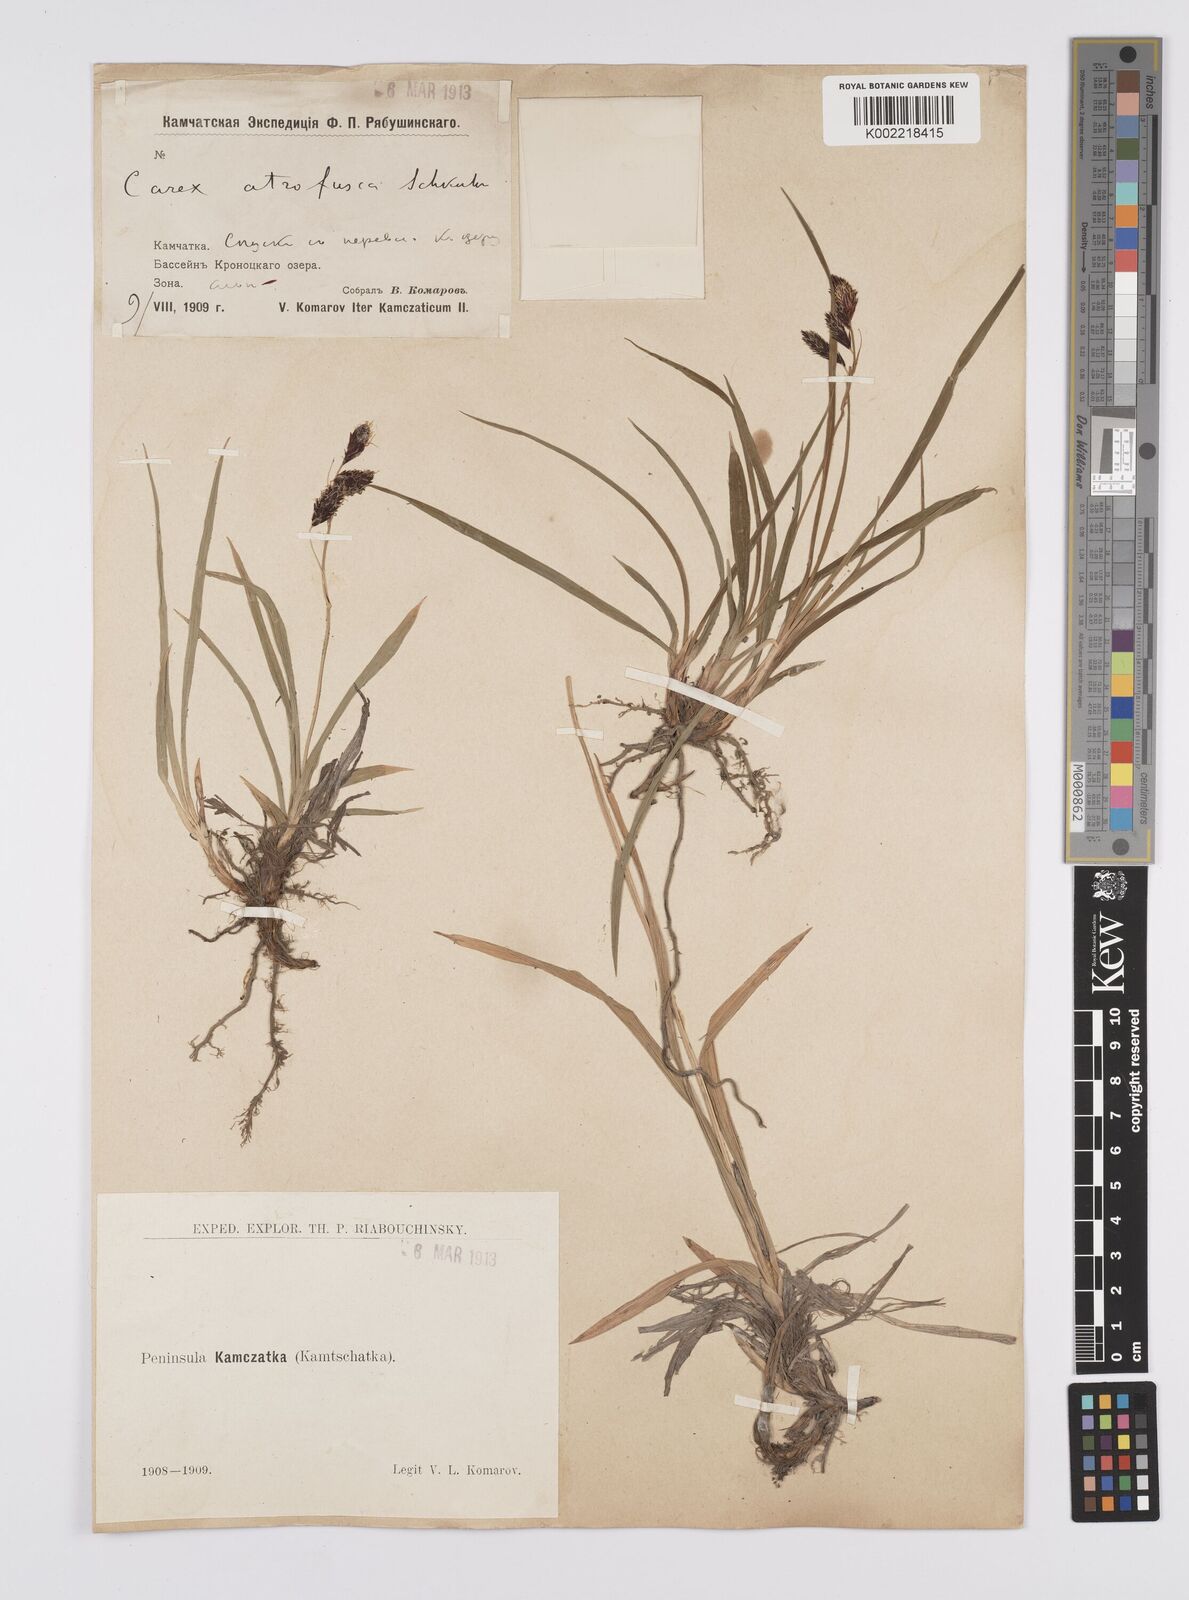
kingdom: Plantae
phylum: Tracheophyta
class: Liliopsida
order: Poales
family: Cyperaceae
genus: Carex
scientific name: Carex scita
